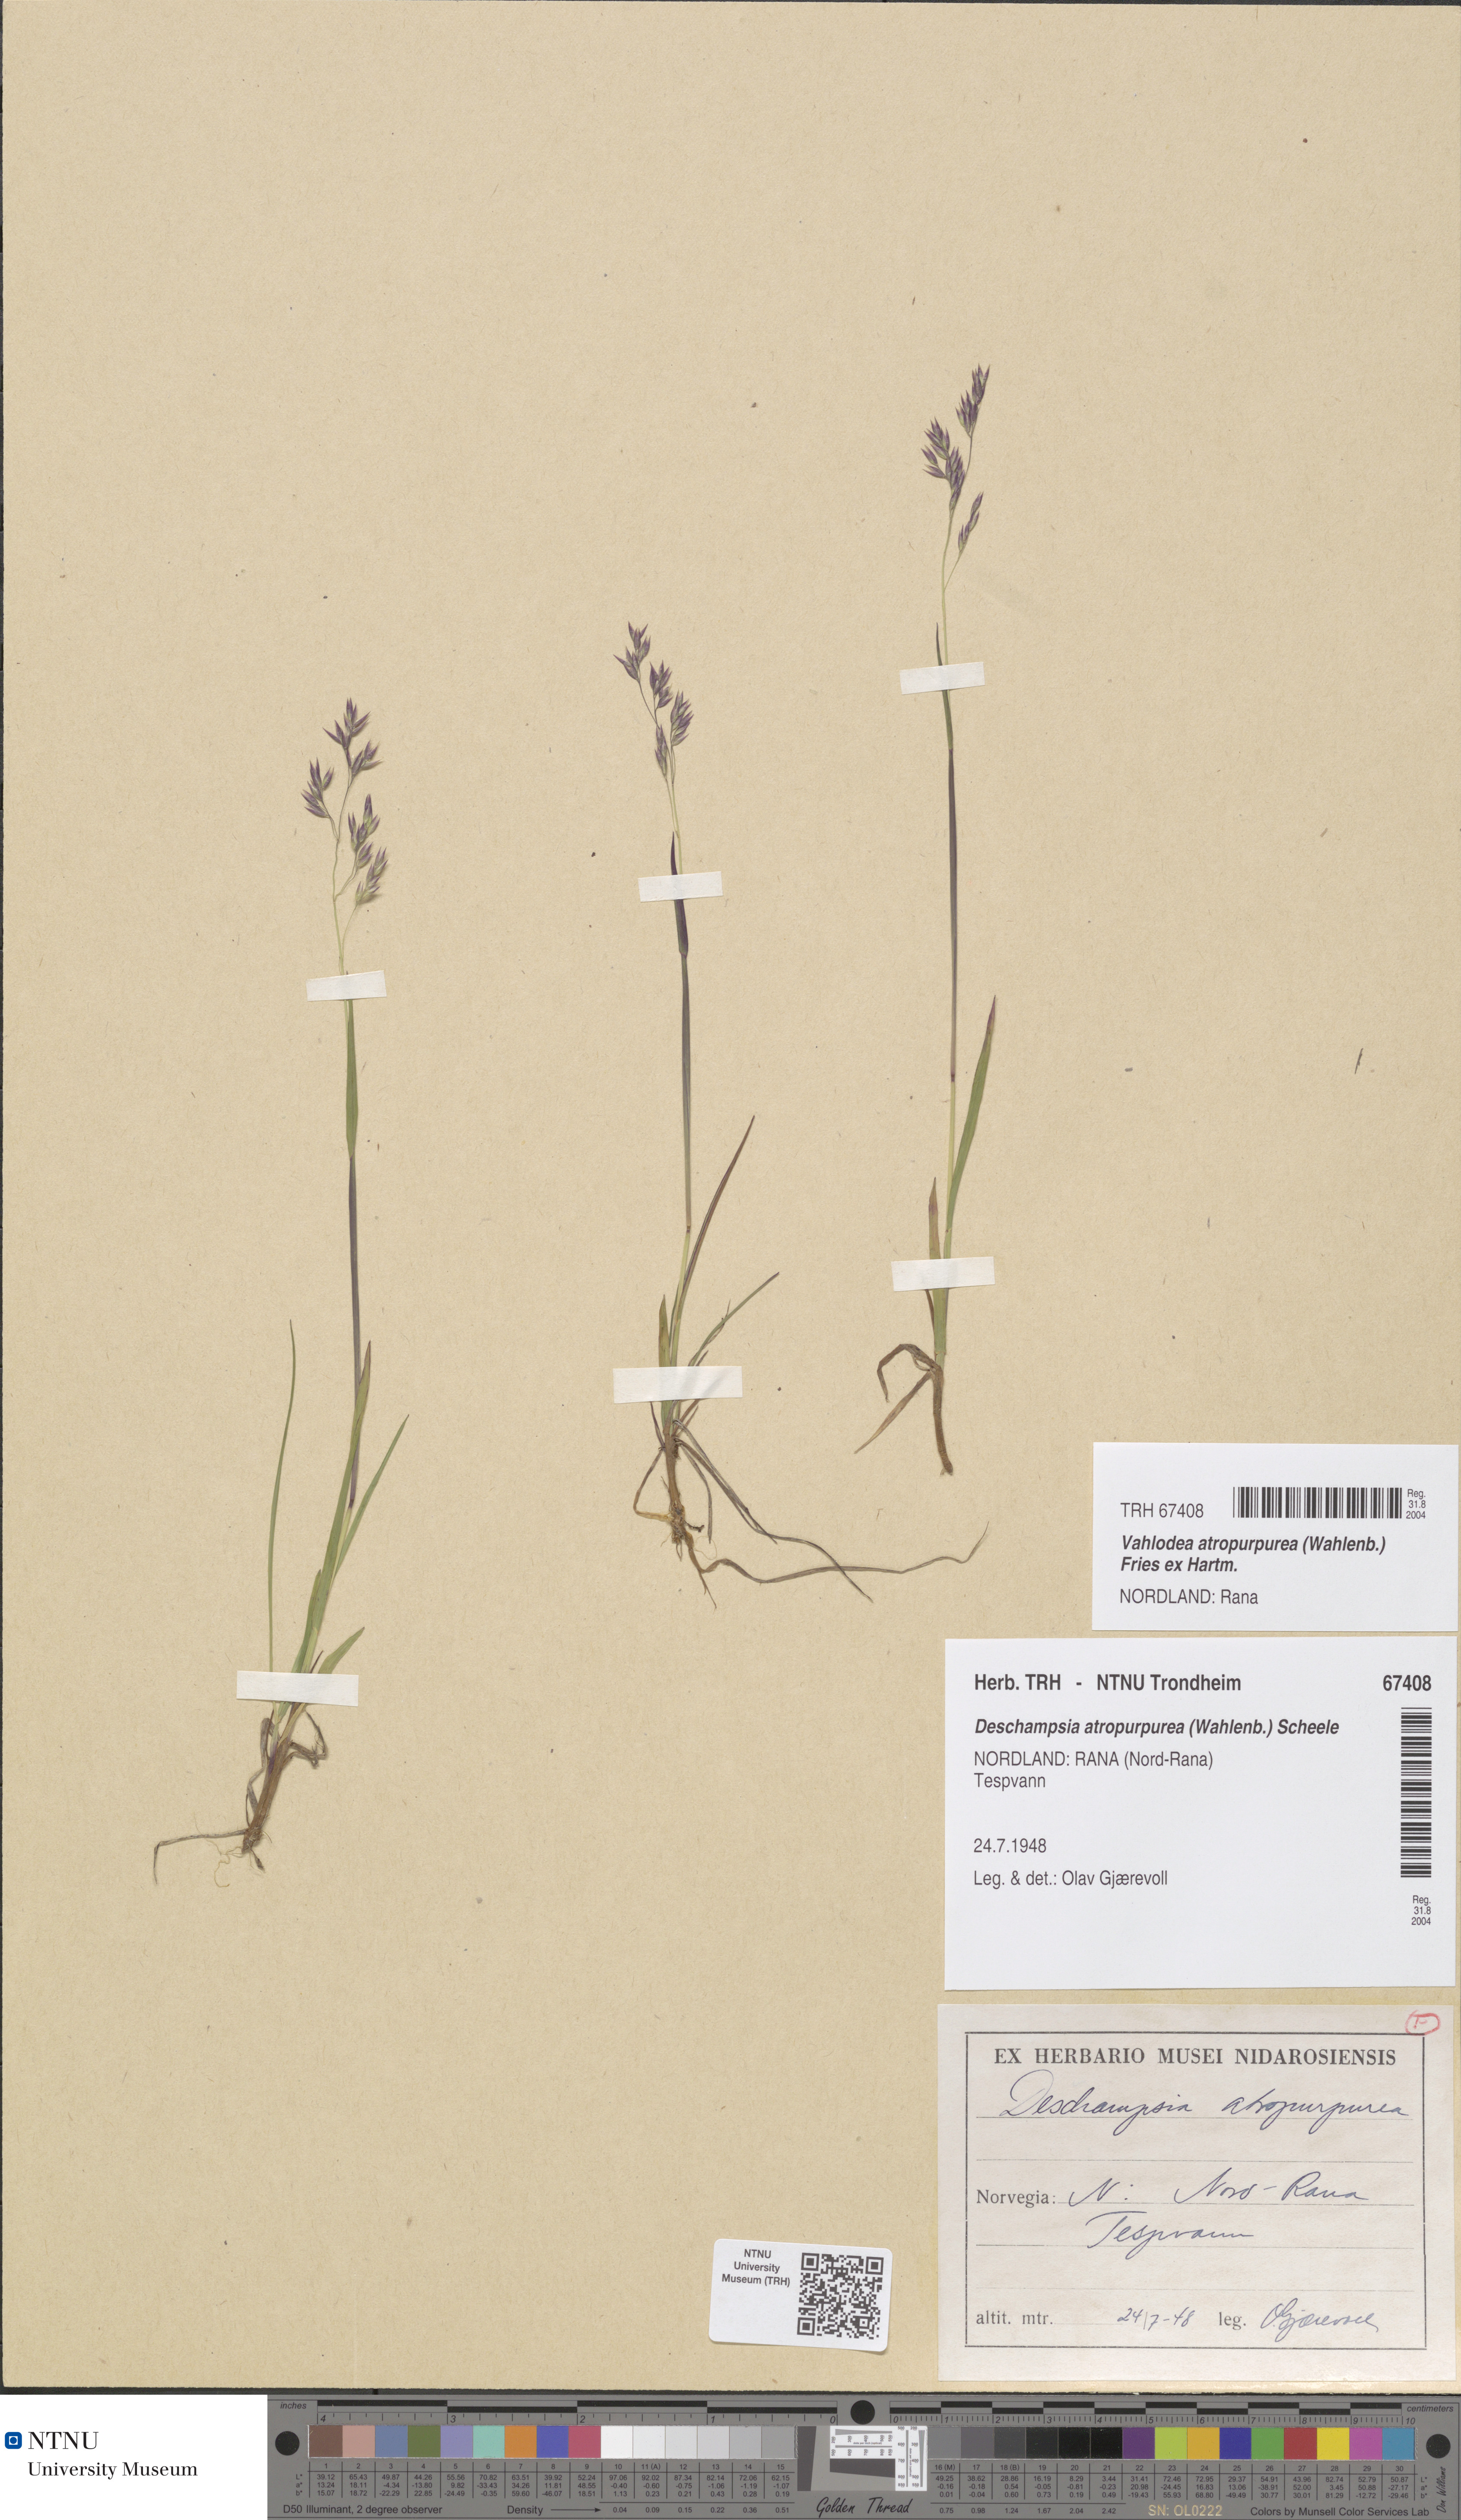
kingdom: Plantae
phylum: Tracheophyta
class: Liliopsida
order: Poales
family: Poaceae
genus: Vahlodea
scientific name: Vahlodea atropurpurea
